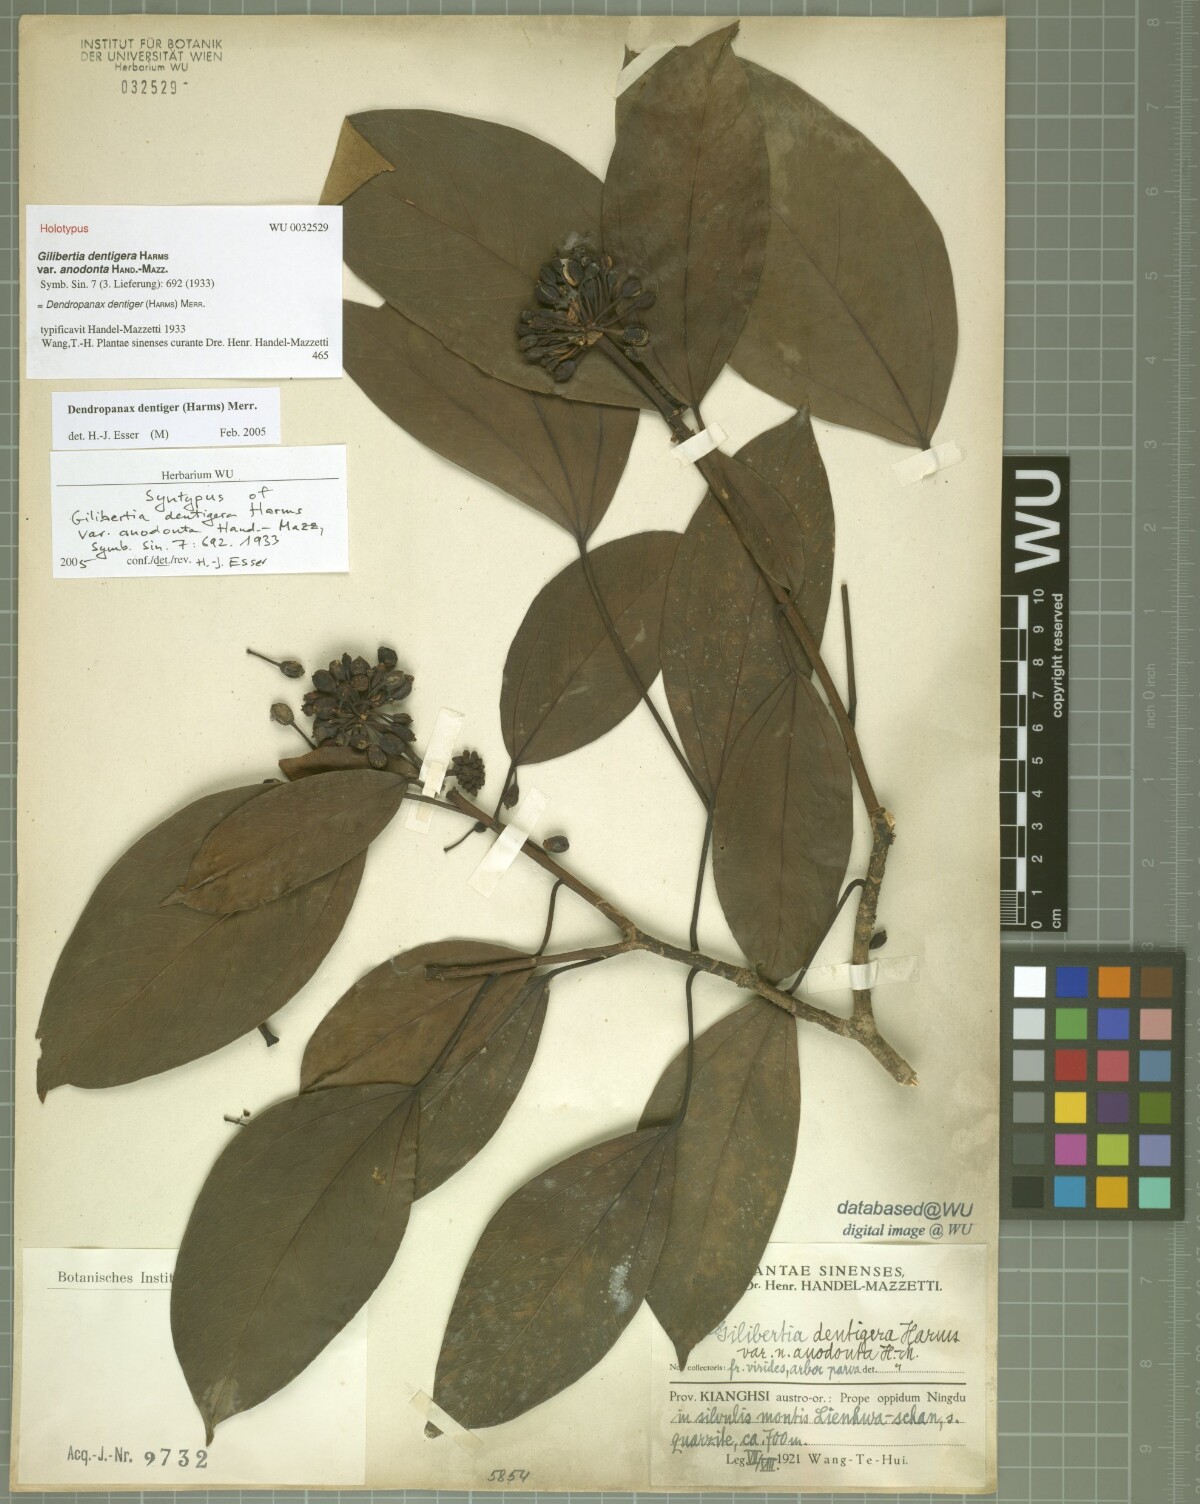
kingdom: Plantae
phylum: Tracheophyta
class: Magnoliopsida
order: Apiales
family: Araliaceae
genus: Dendropanax
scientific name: Dendropanax dentigerus
